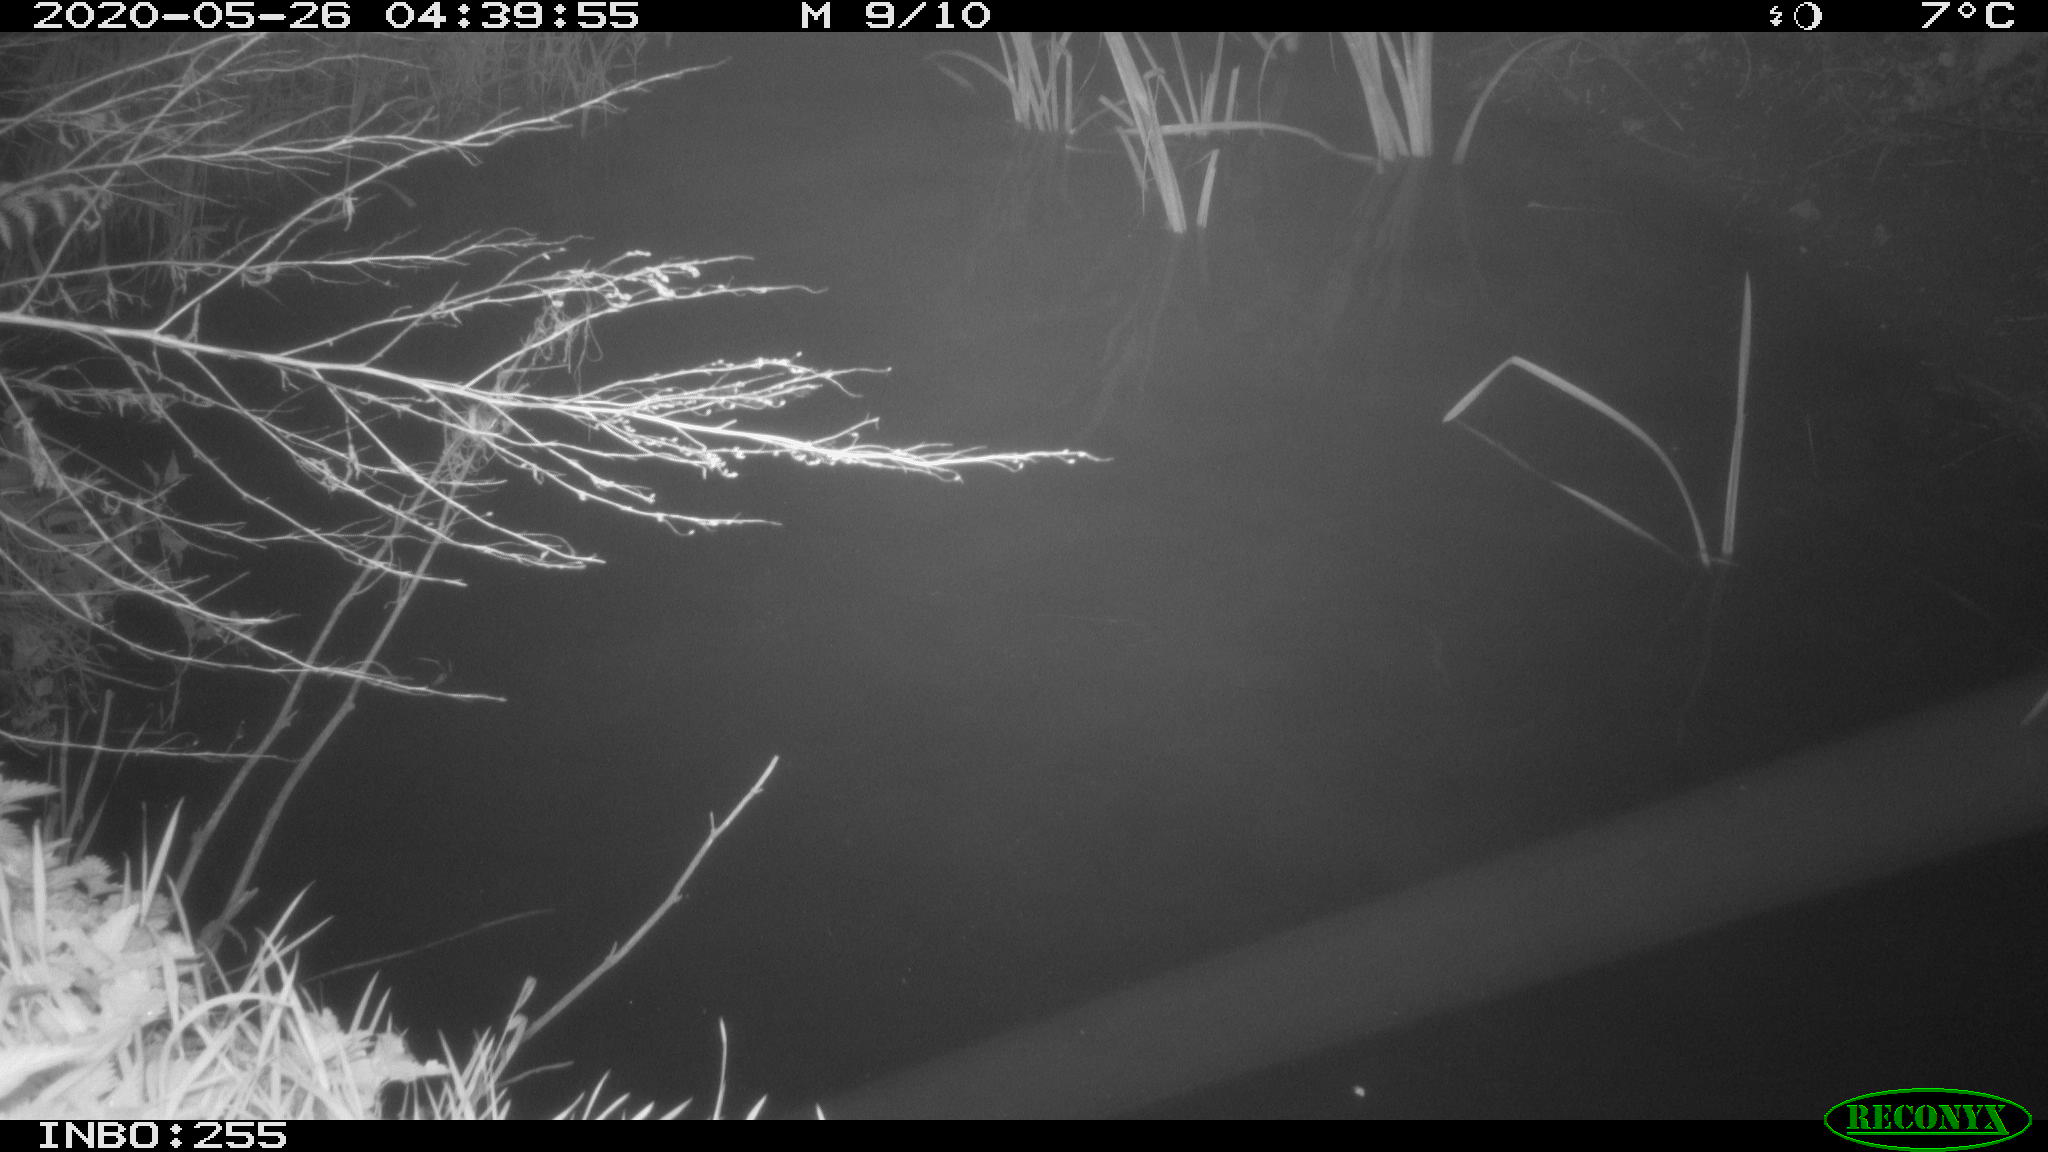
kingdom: Animalia
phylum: Chordata
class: Aves
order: Anseriformes
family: Anatidae
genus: Anas
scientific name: Anas platyrhynchos
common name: Mallard
